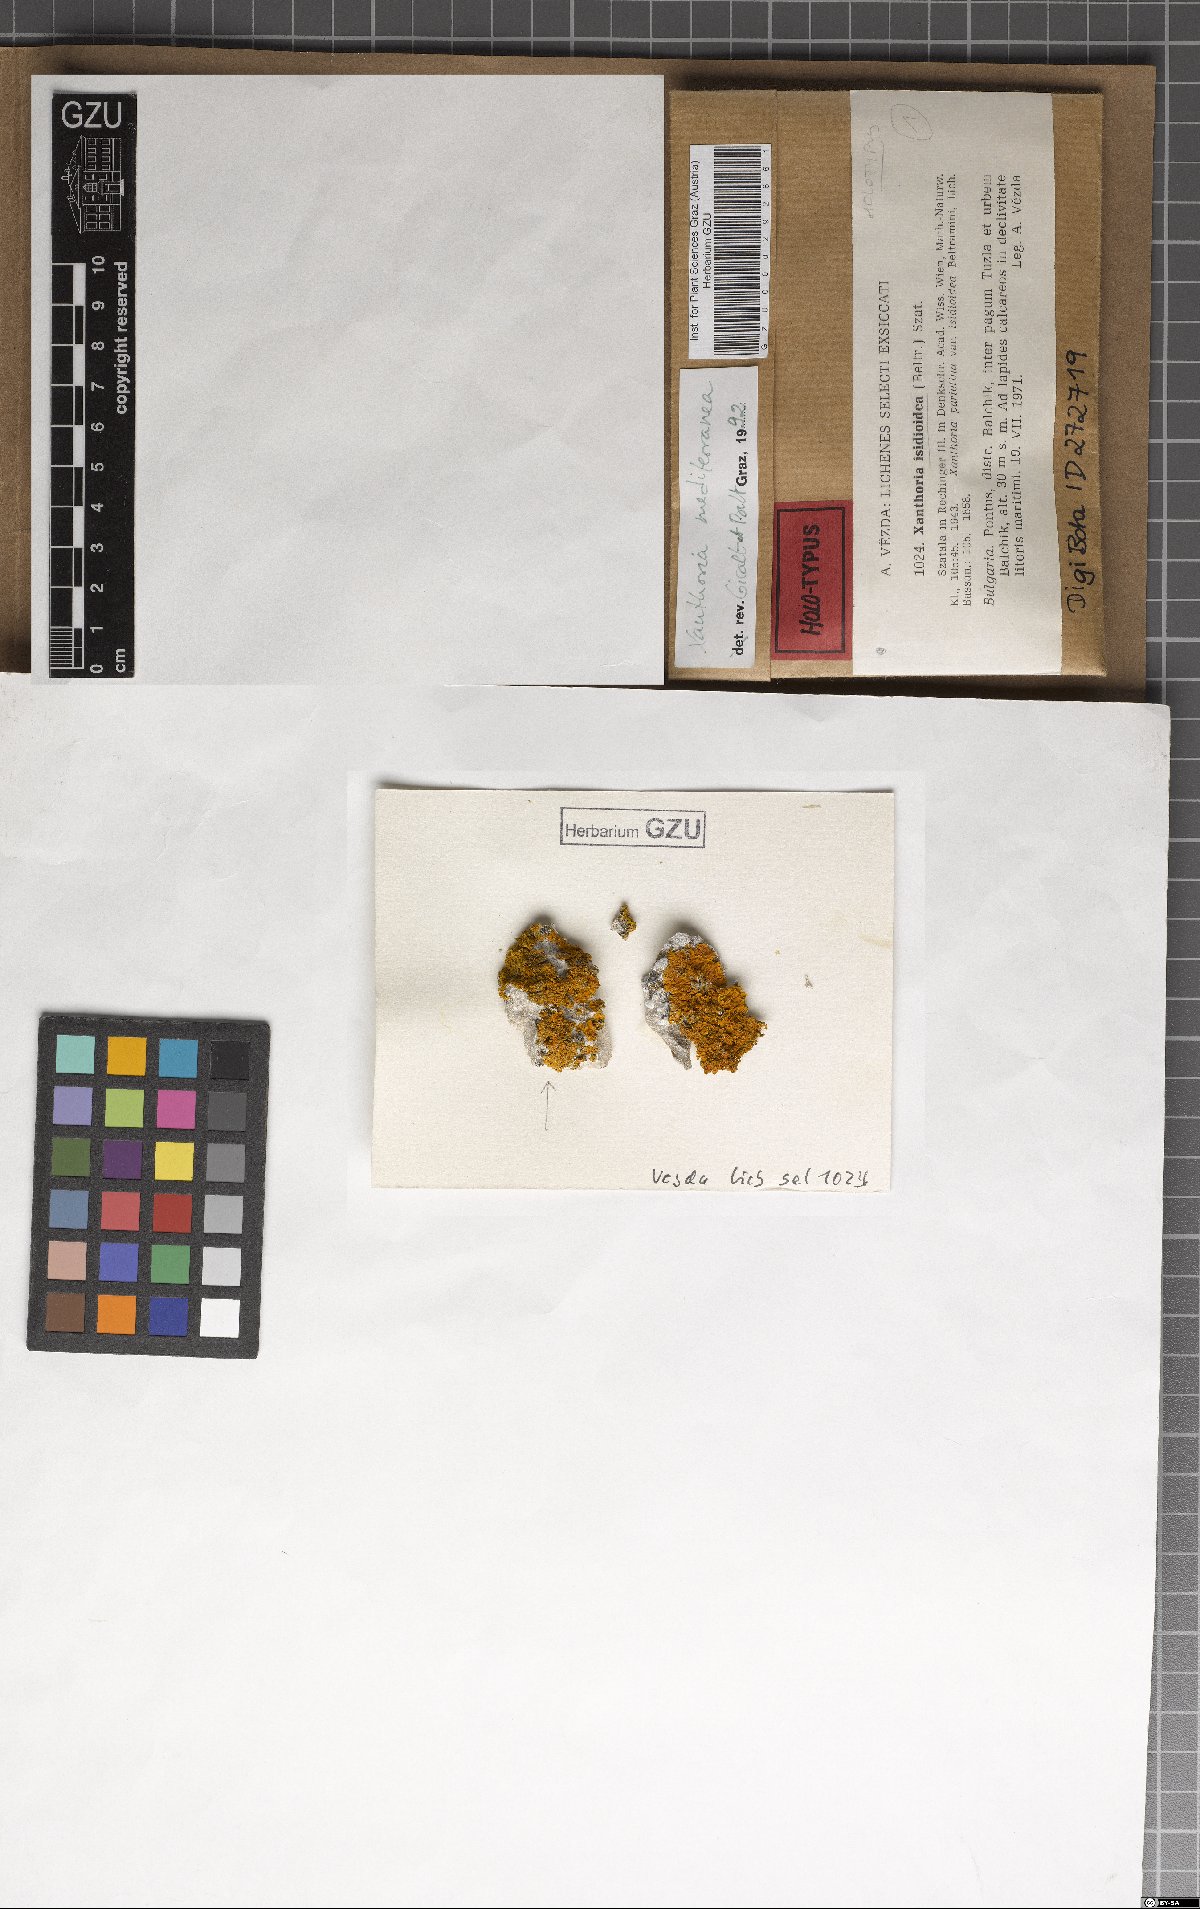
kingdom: Fungi
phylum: Ascomycota
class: Lecanoromycetes
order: Teloschistales
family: Teloschistaceae
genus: Xanthoria
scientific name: Xanthoria parietina
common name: Common orange lichen
